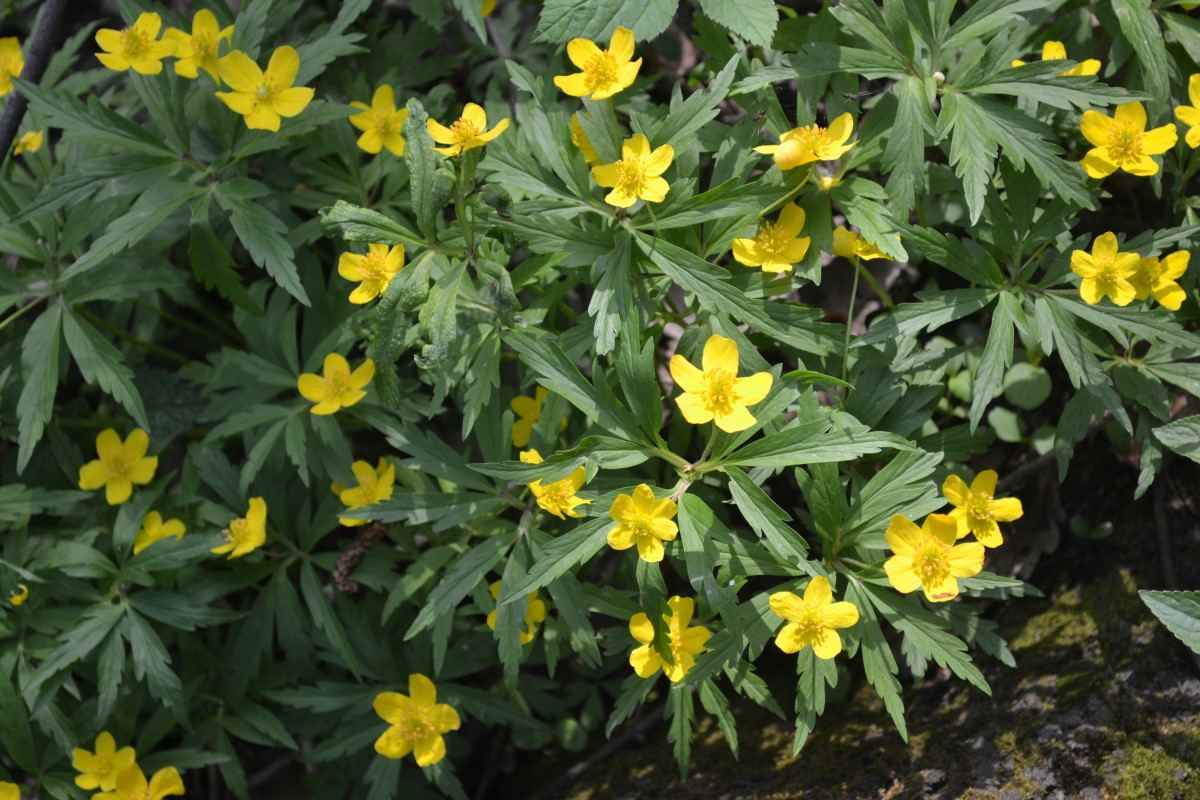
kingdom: Plantae
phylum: Tracheophyta
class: Magnoliopsida
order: Ranunculales
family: Ranunculaceae
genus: Anemone
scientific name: Anemone ranunculoides
